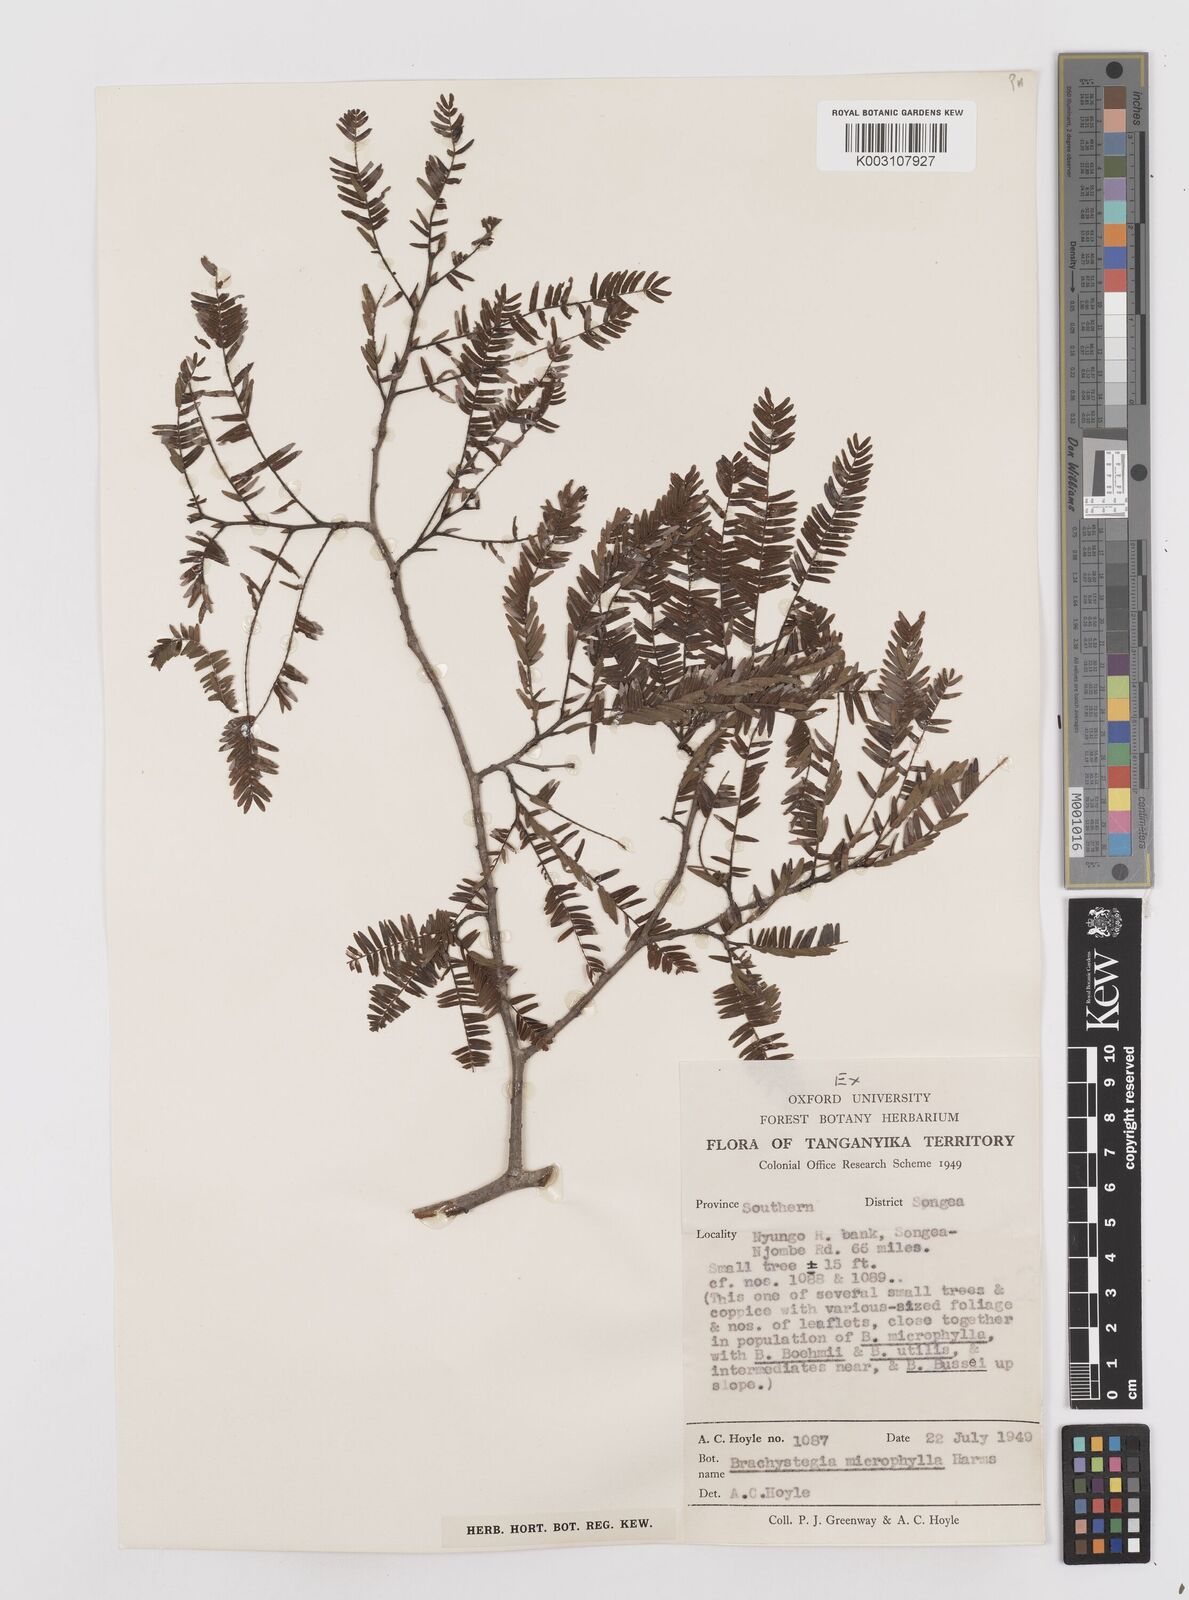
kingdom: Plantae
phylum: Tracheophyta
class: Magnoliopsida
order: Fabales
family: Fabaceae
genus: Brachystegia
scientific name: Brachystegia tamarindoides
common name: Mountain acacia
